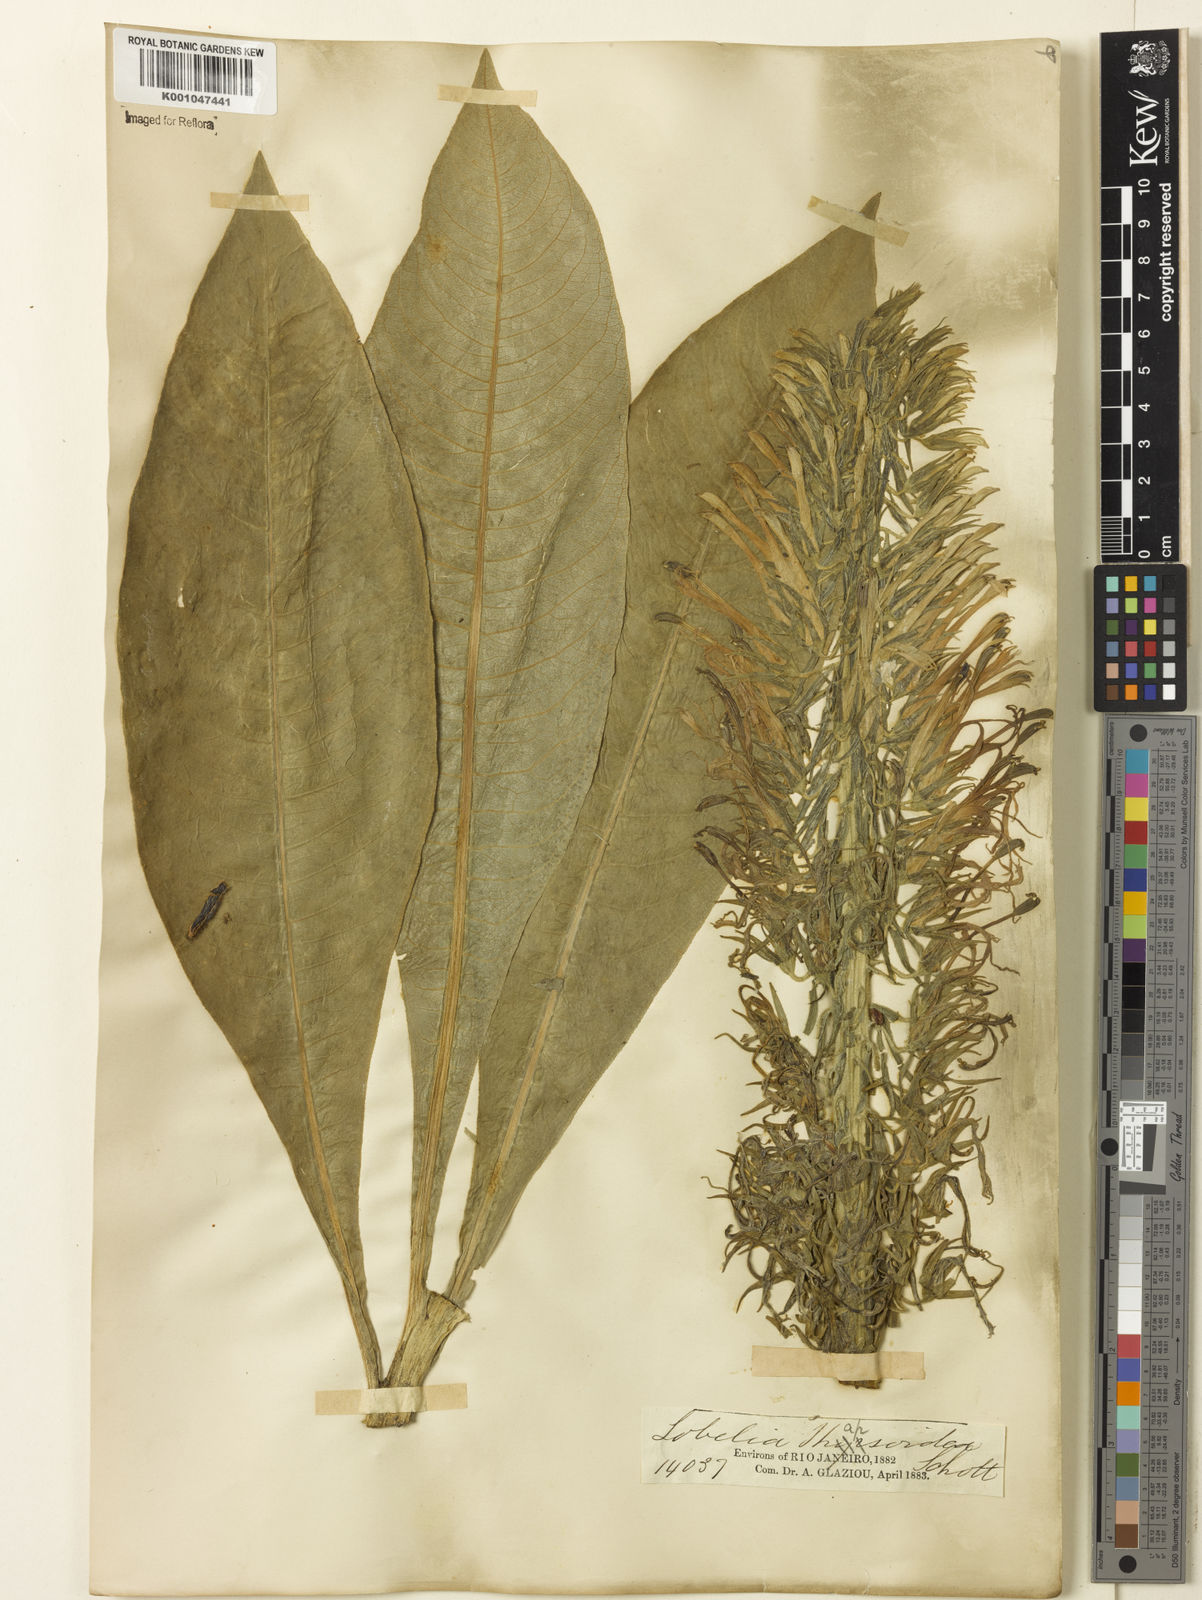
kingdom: Plantae
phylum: Tracheophyta
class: Magnoliopsida
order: Asterales
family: Campanulaceae
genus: Lobelia
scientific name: Lobelia
